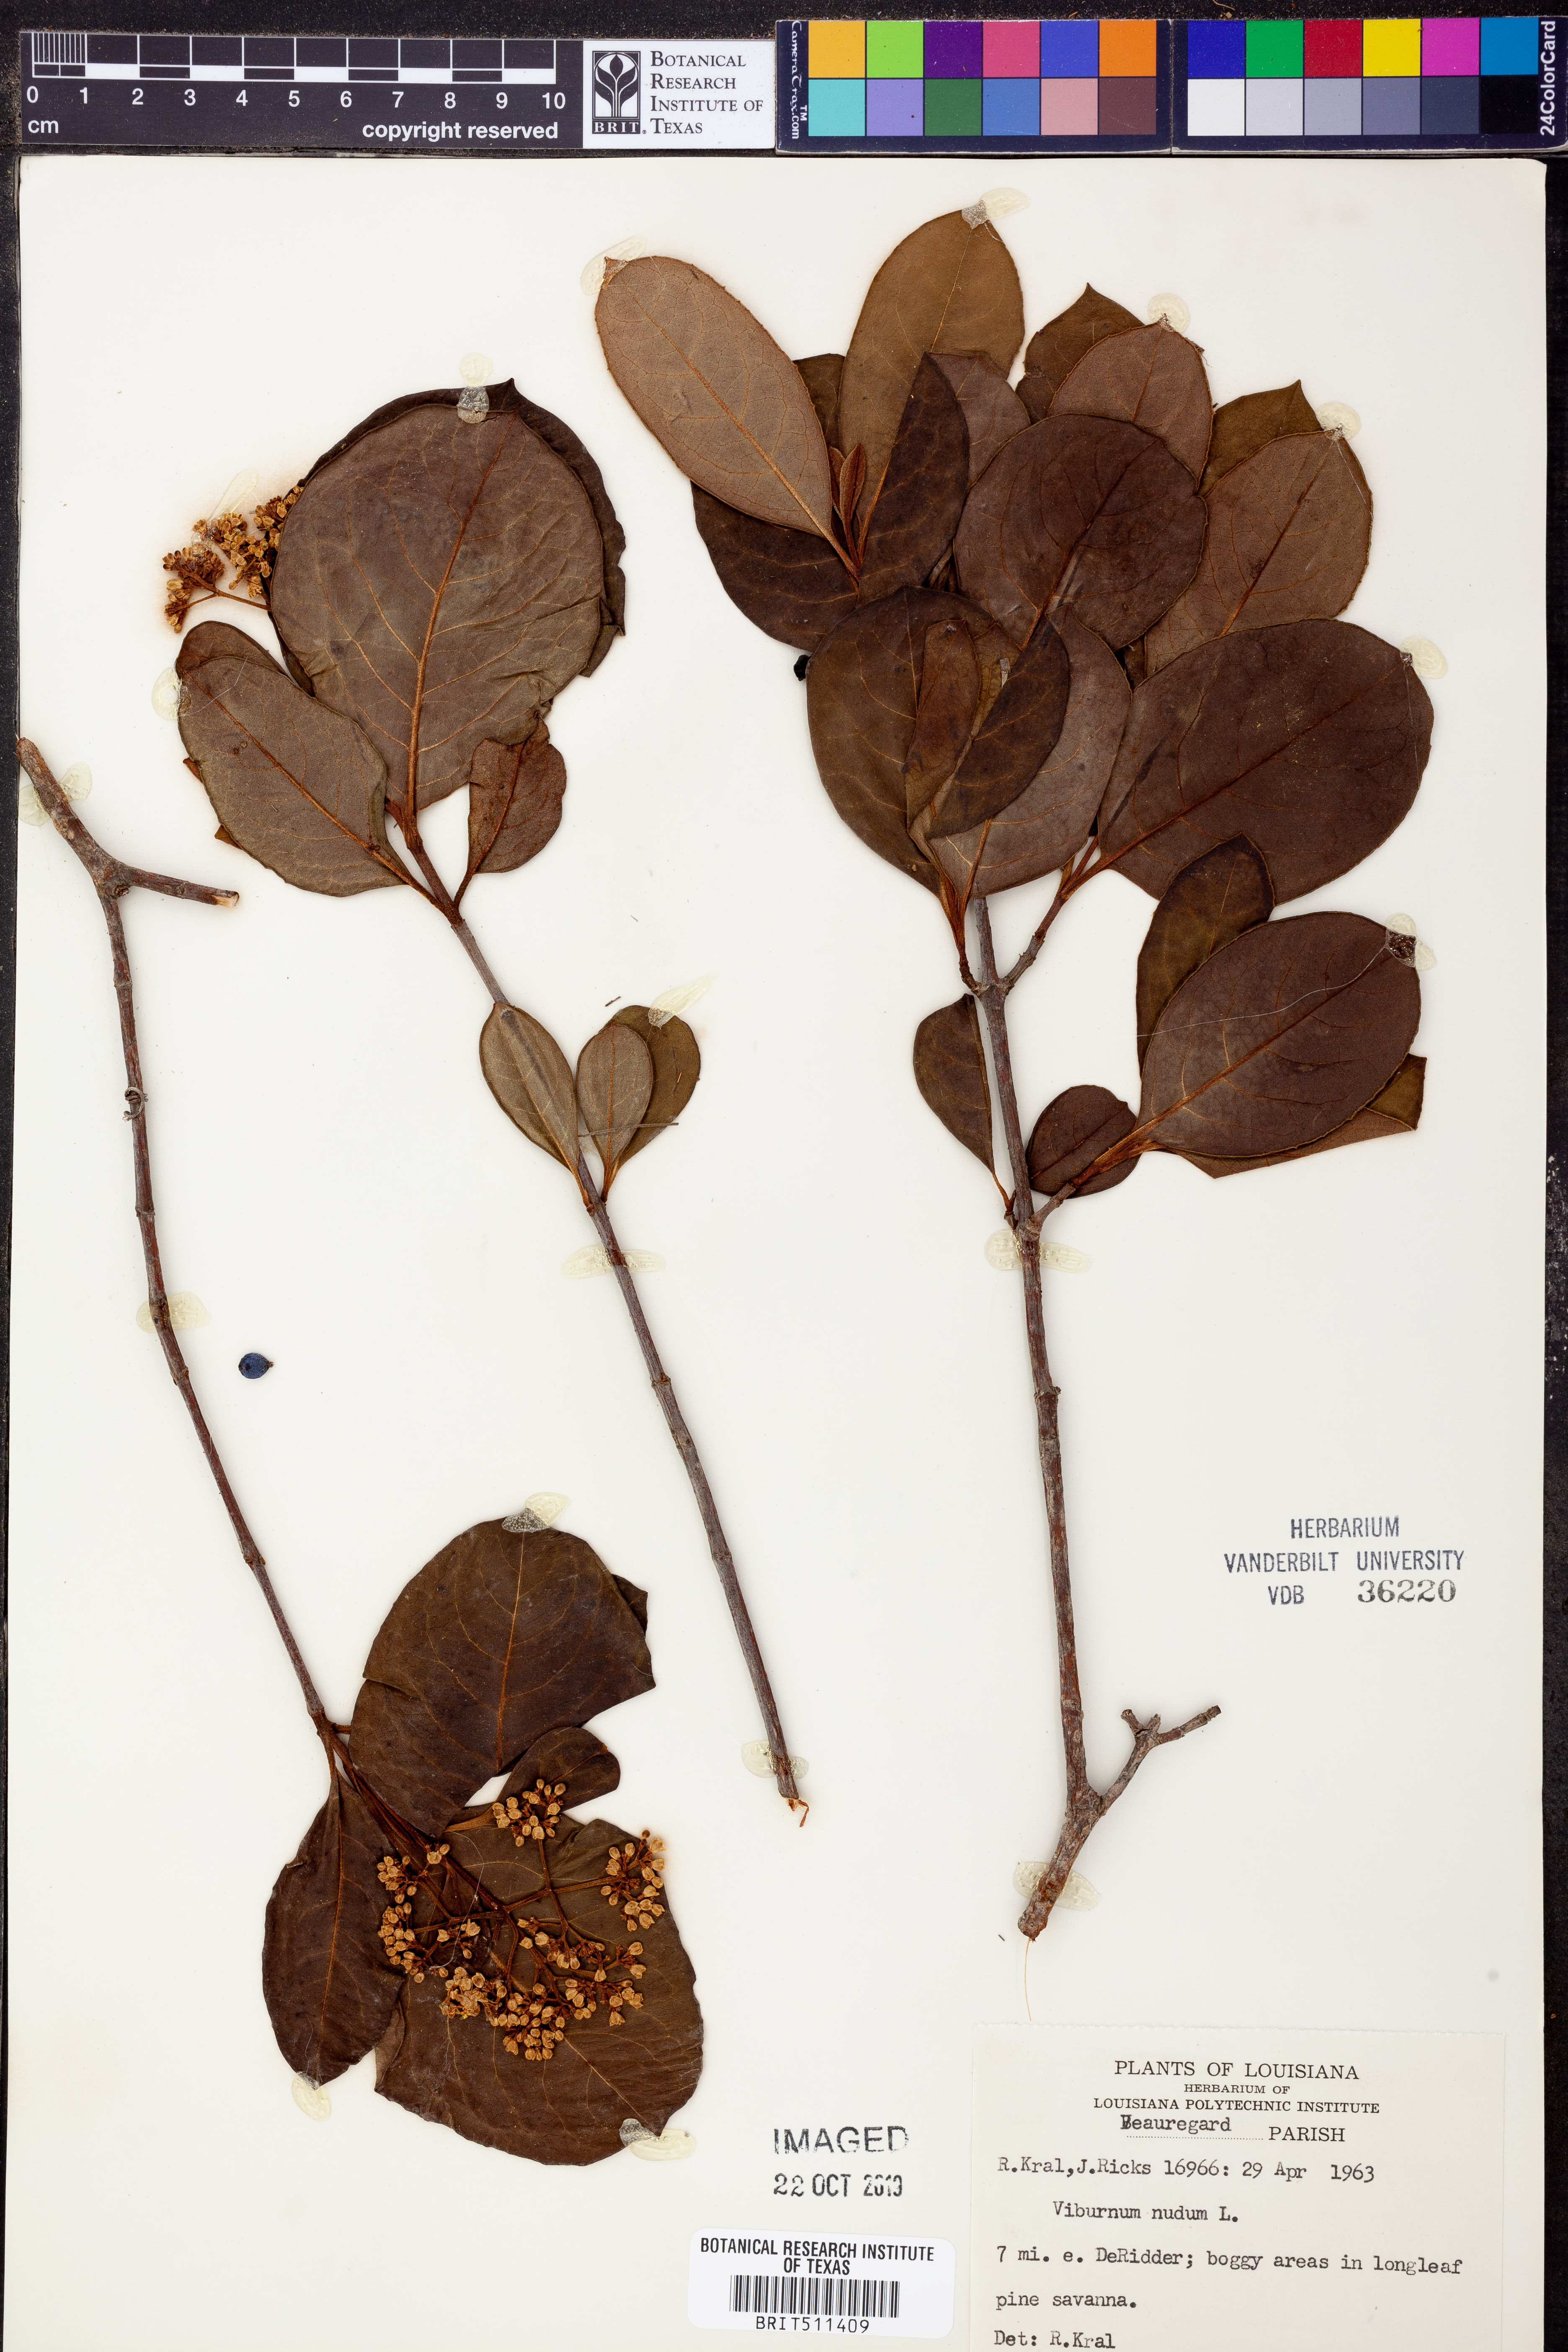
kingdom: Plantae
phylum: Tracheophyta
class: Magnoliopsida
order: Dipsacales
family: Viburnaceae
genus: Viburnum
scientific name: Viburnum nudum
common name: Possum haw
